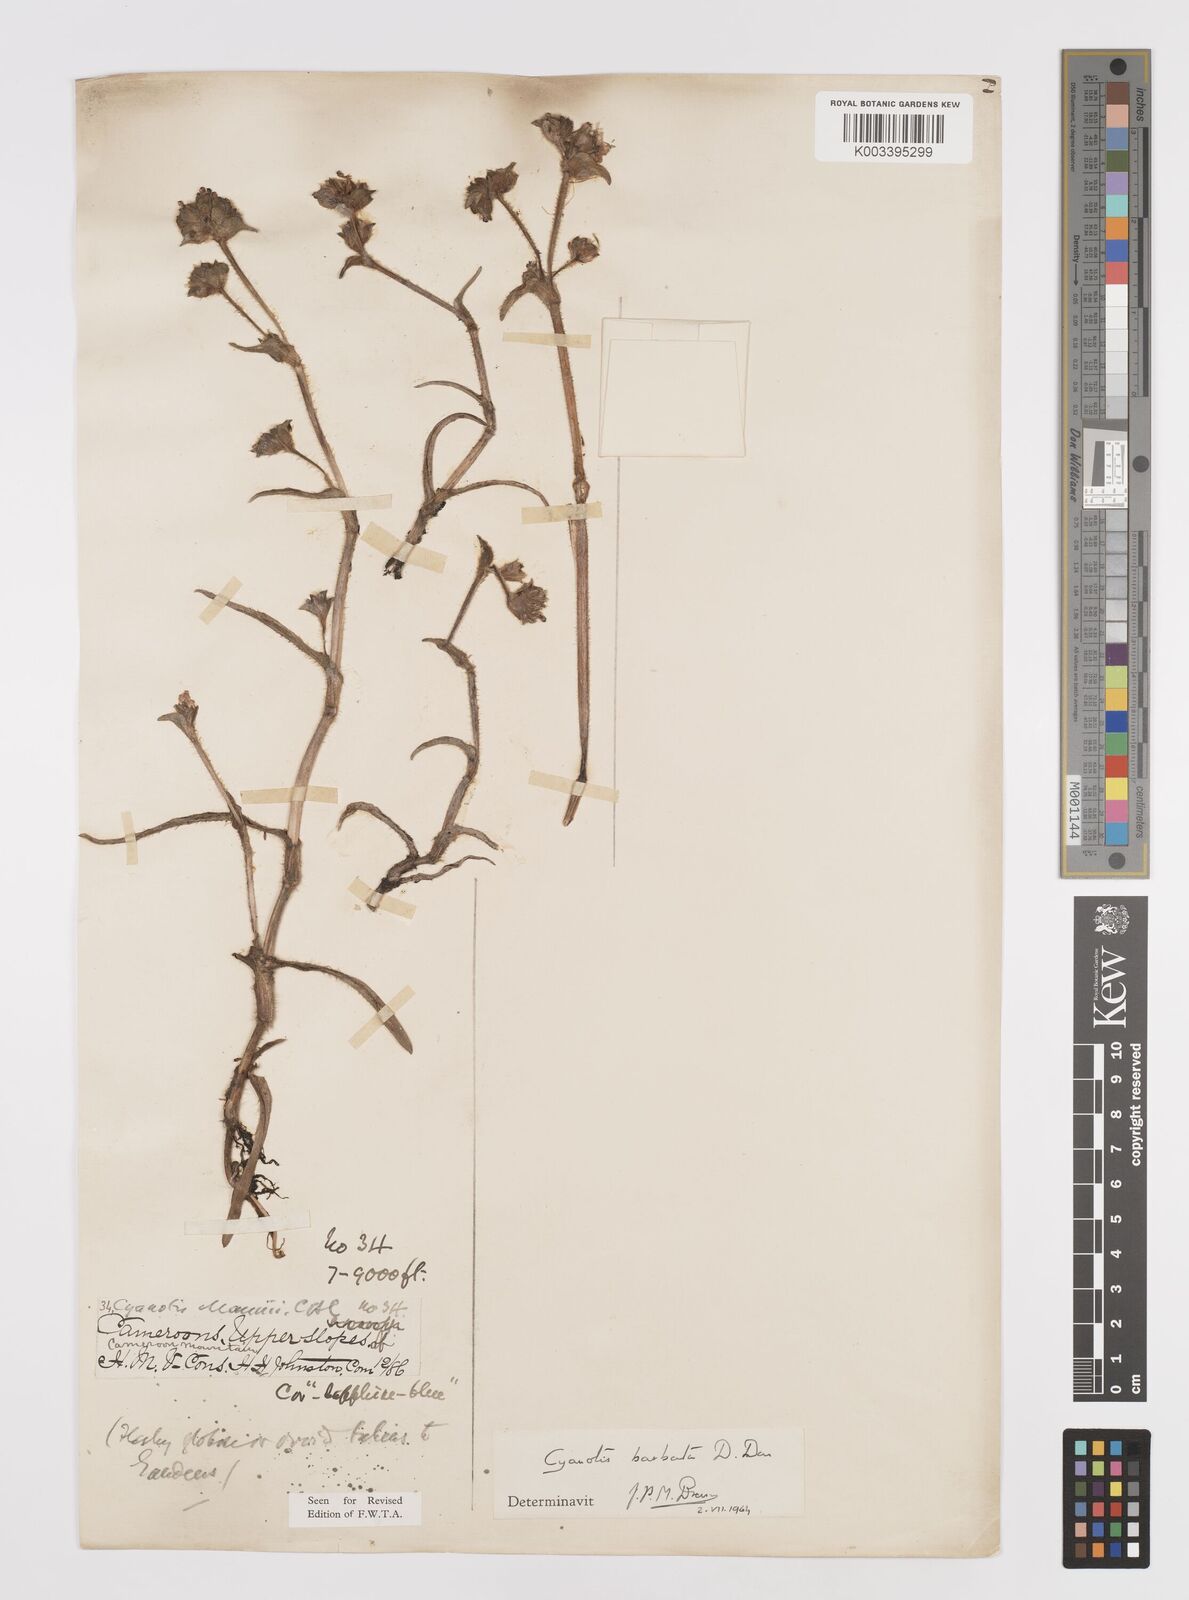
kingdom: Plantae
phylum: Tracheophyta
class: Liliopsida
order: Commelinales
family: Commelinaceae
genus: Cyanotis
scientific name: Cyanotis vaga
